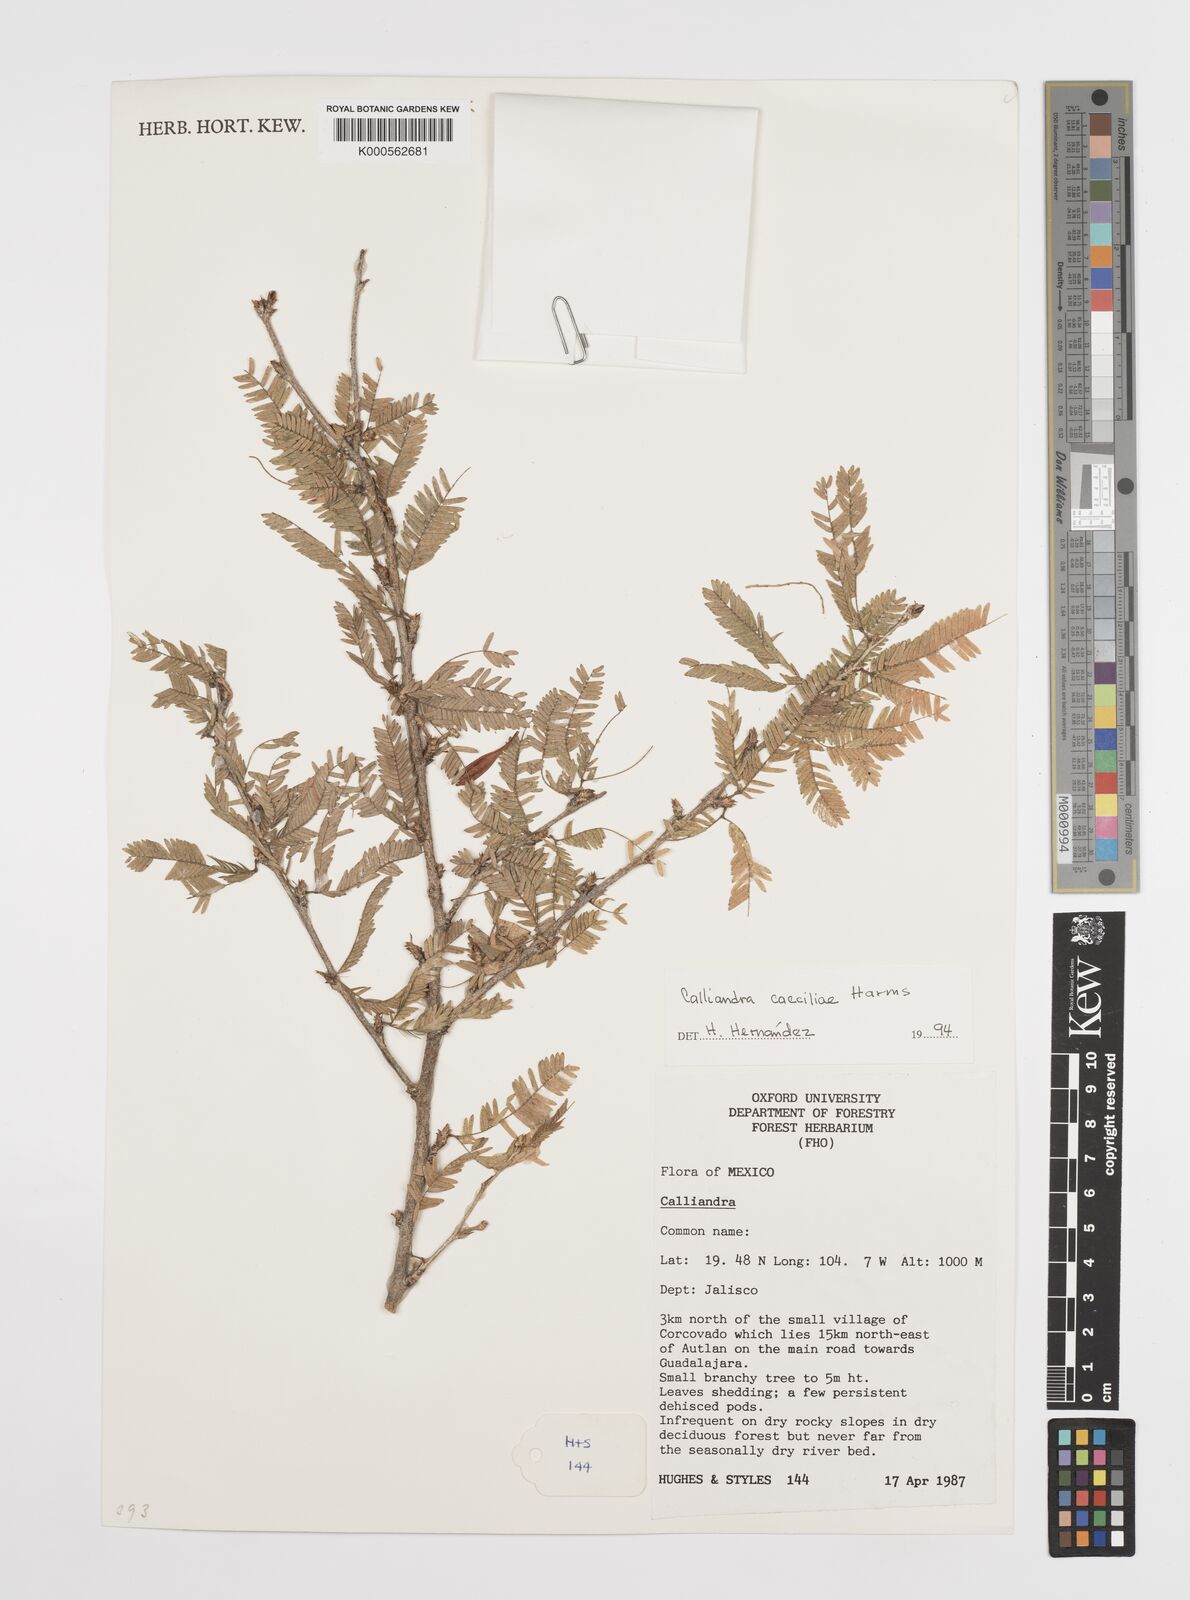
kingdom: Plantae
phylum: Tracheophyta
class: Magnoliopsida
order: Fabales
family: Fabaceae
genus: Calliandra
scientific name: Calliandra caeciliae
